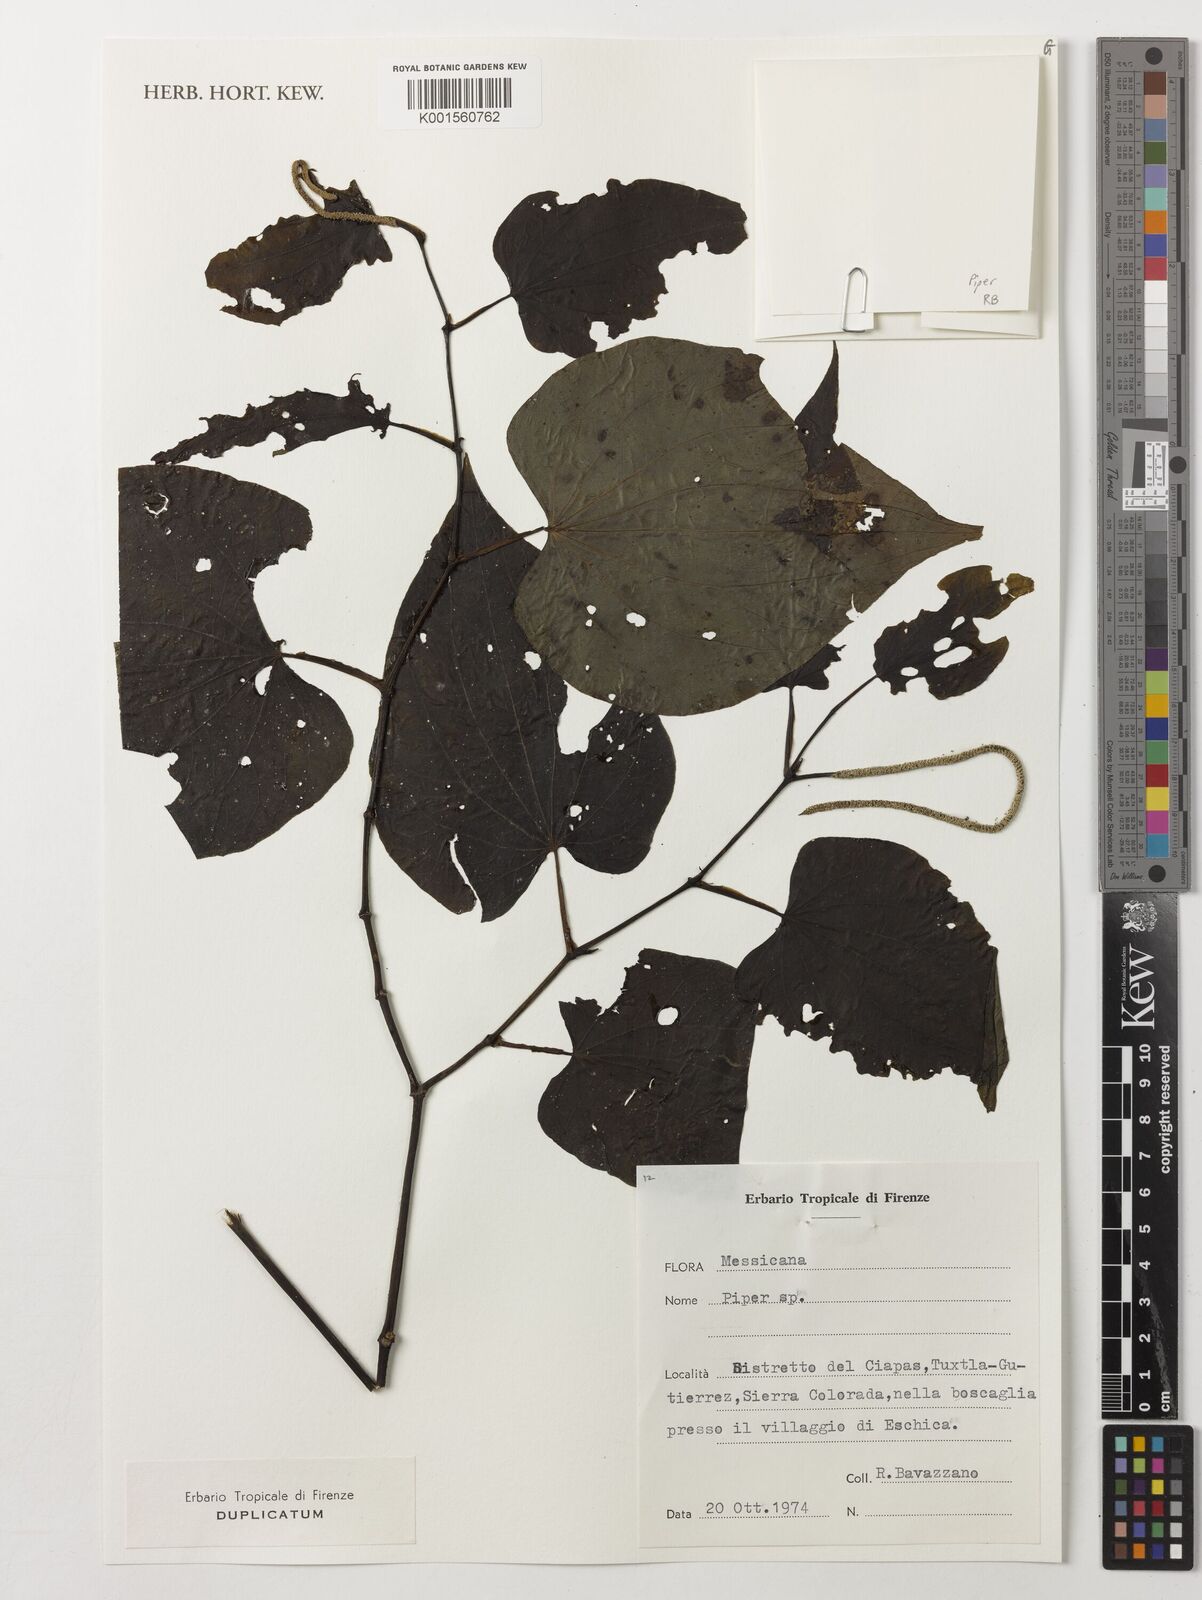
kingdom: Plantae
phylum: Tracheophyta
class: Magnoliopsida
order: Piperales
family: Piperaceae
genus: Piper
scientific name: Piper
